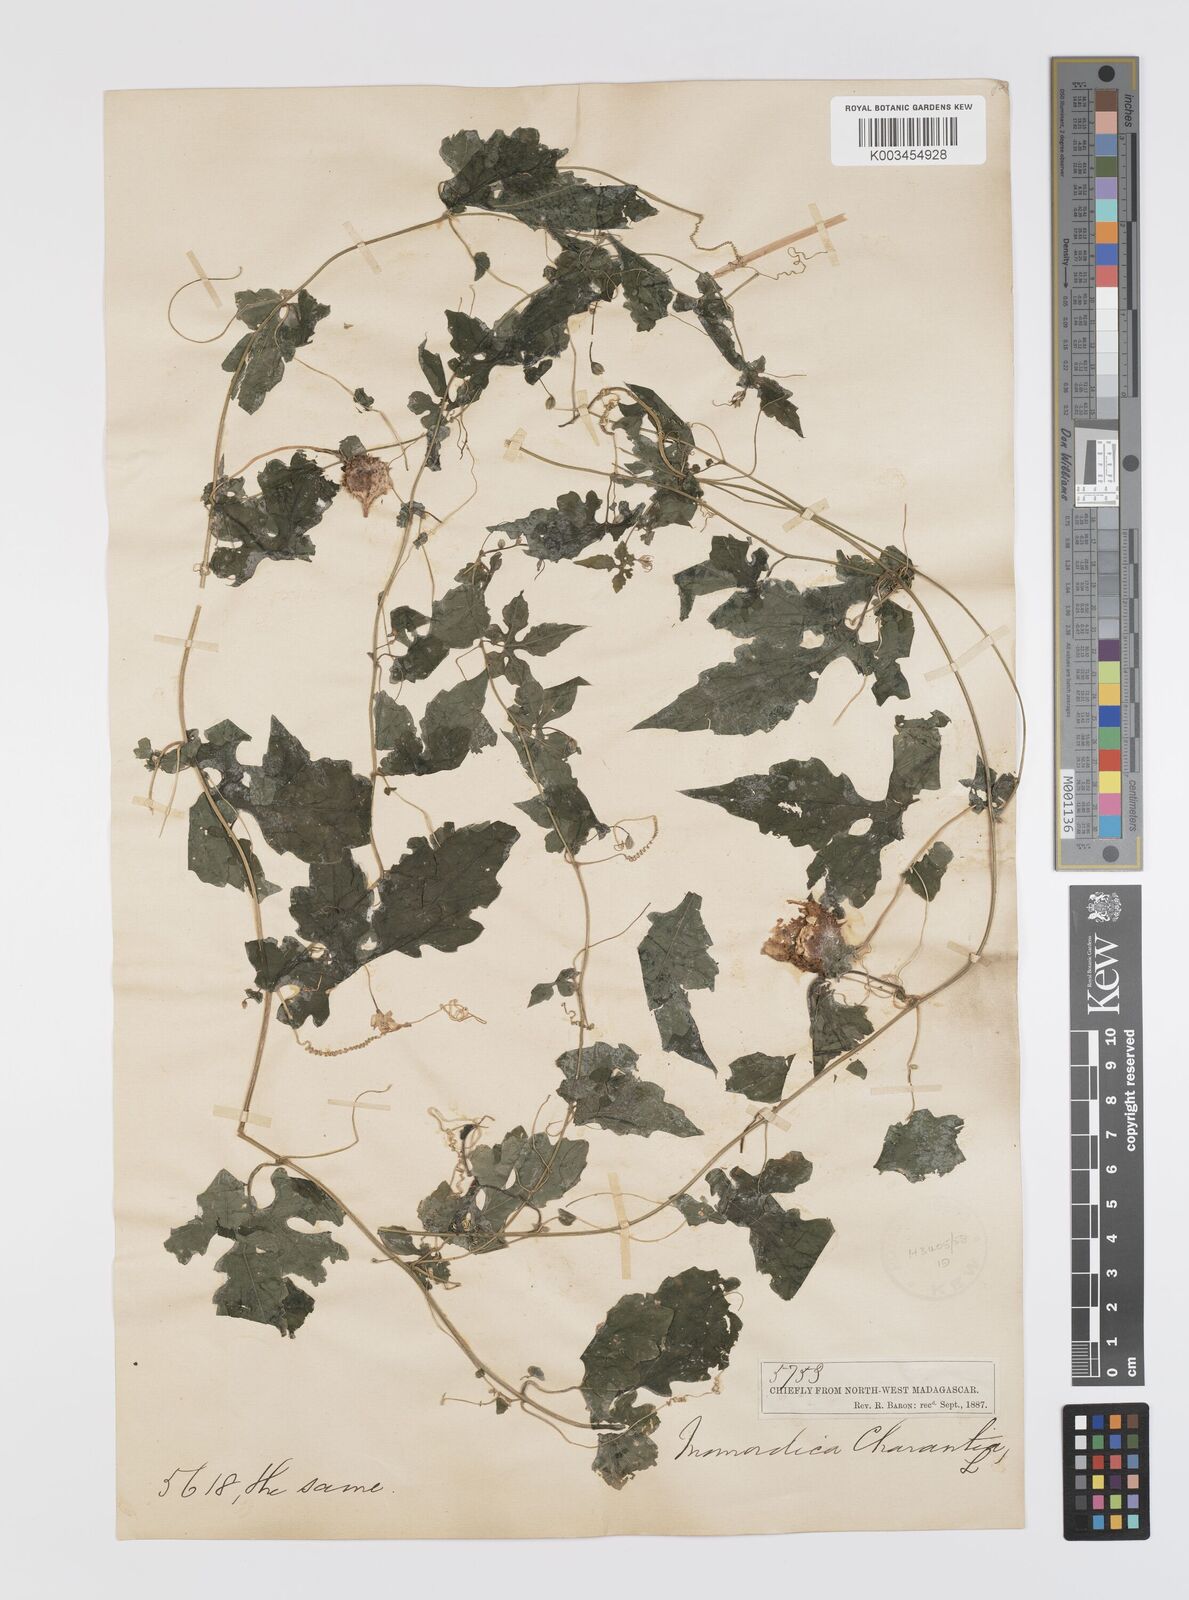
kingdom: Plantae
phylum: Tracheophyta
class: Magnoliopsida
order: Cucurbitales
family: Cucurbitaceae
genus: Momordica
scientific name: Momordica charantia
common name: Balsampear
